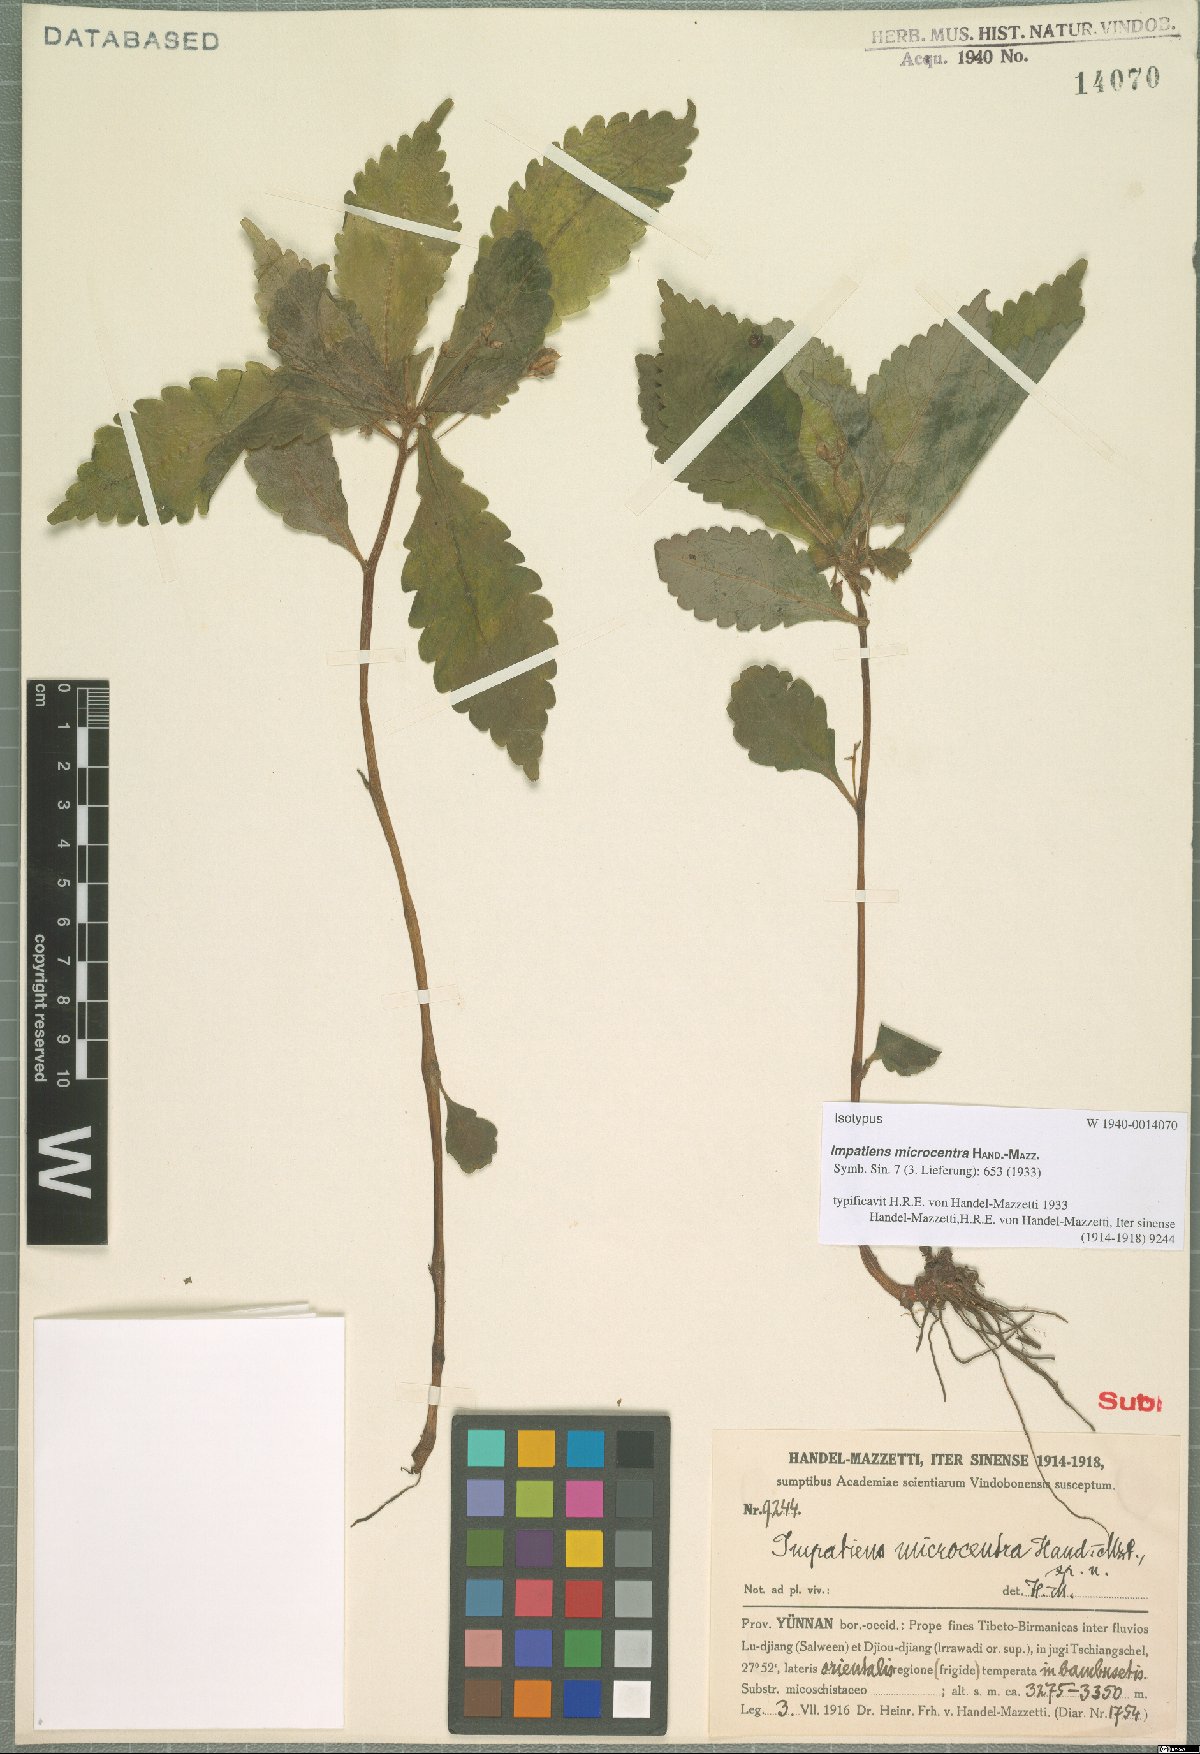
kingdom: Plantae
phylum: Tracheophyta
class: Magnoliopsida
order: Ericales
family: Balsaminaceae
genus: Impatiens
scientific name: Impatiens microcentra
